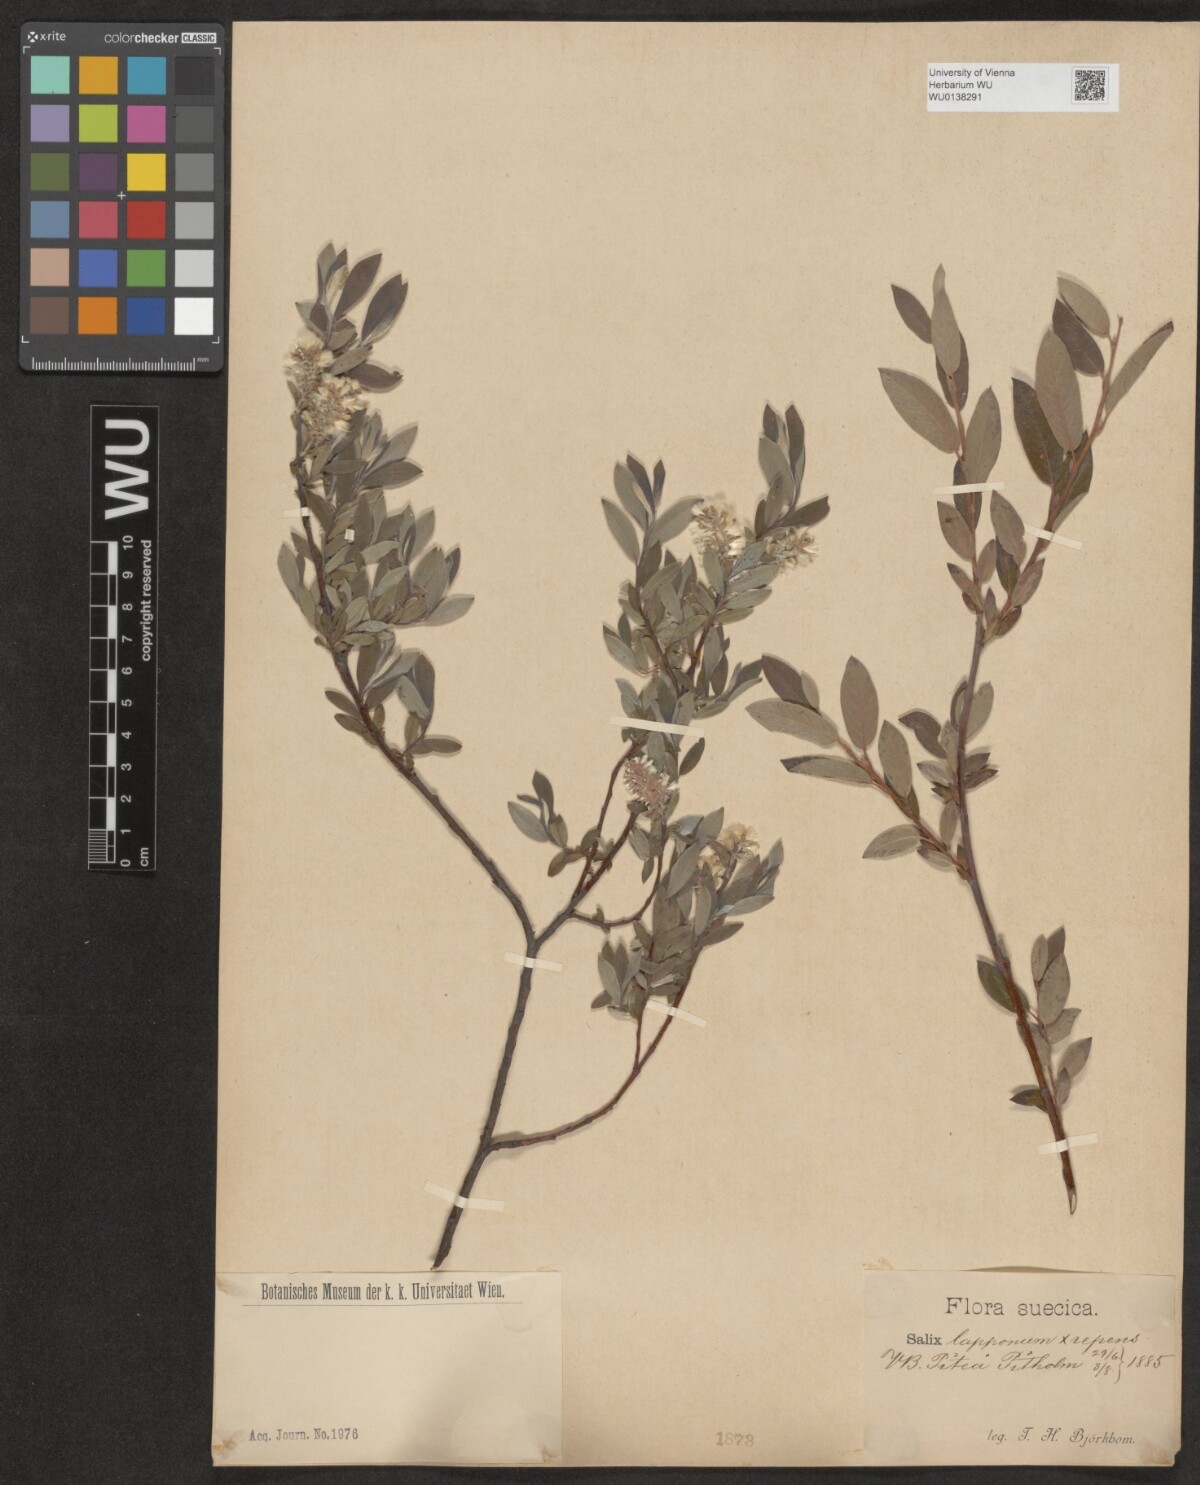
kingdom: Plantae
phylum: Tracheophyta
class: Magnoliopsida
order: Malpighiales
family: Salicaceae
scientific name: Salicaceae
